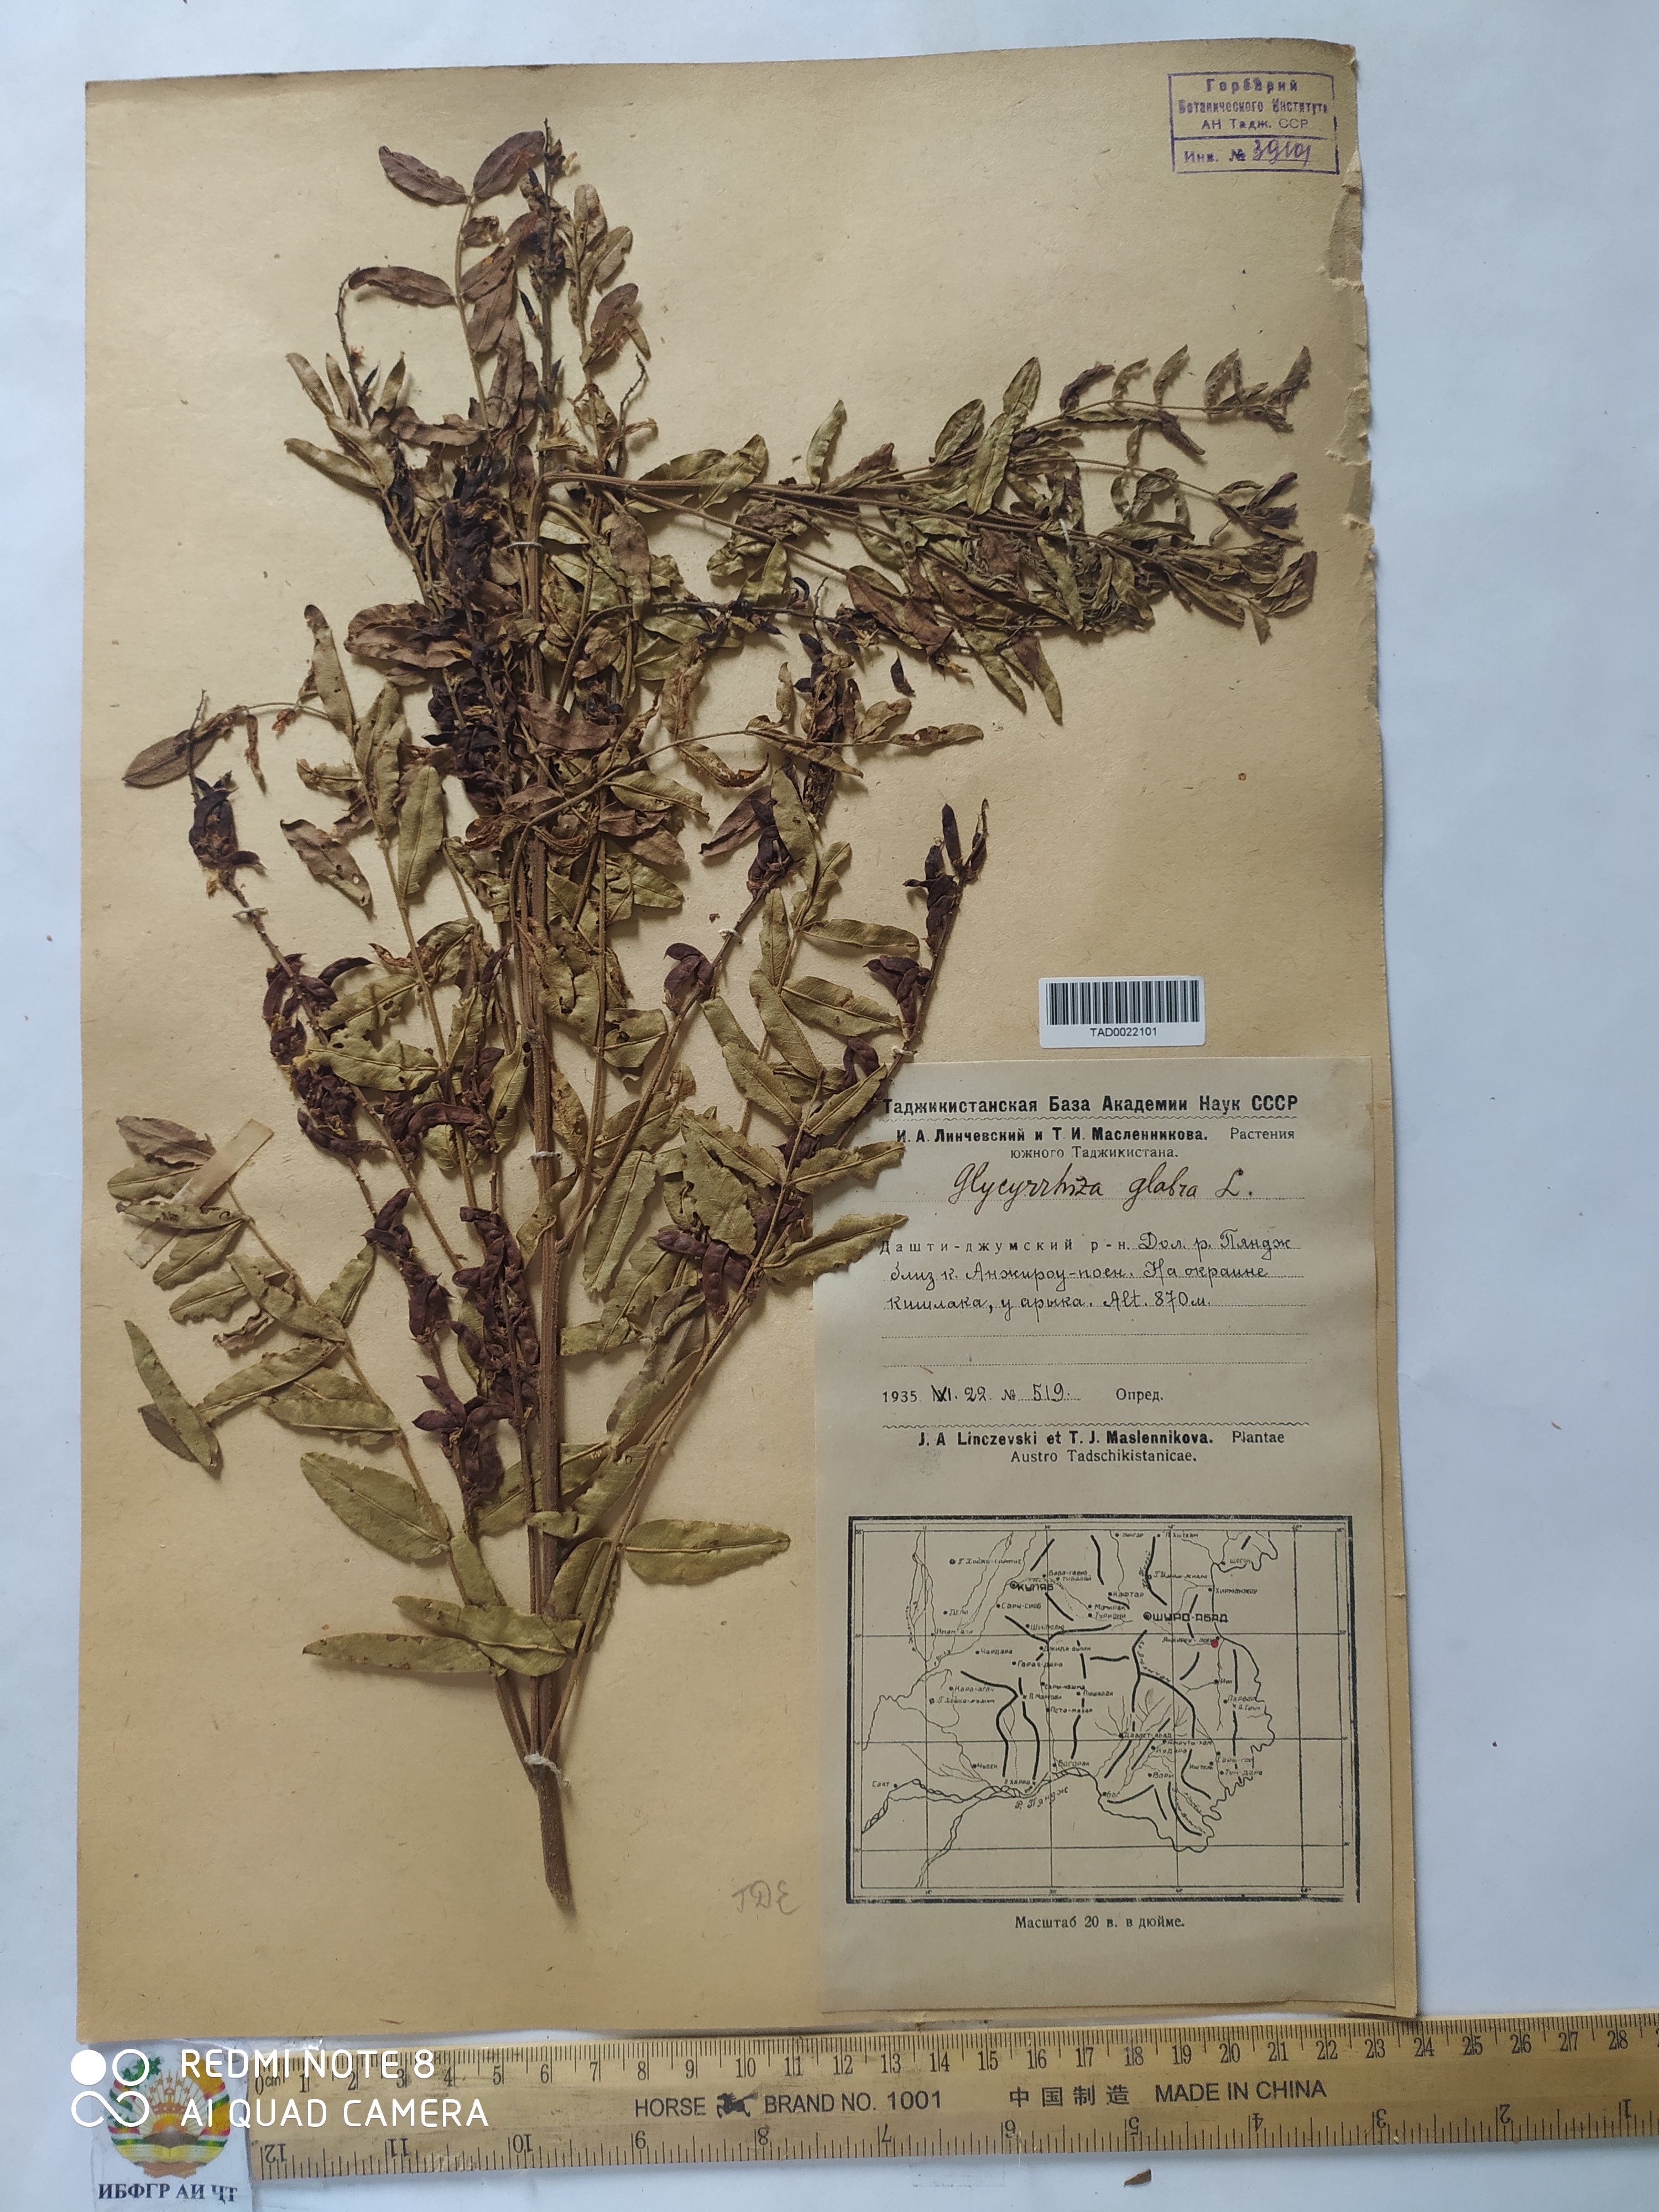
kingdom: Plantae
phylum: Tracheophyta
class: Magnoliopsida
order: Fabales
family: Fabaceae
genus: Glycyrrhiza
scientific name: Glycyrrhiza glabra
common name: Liquorice
